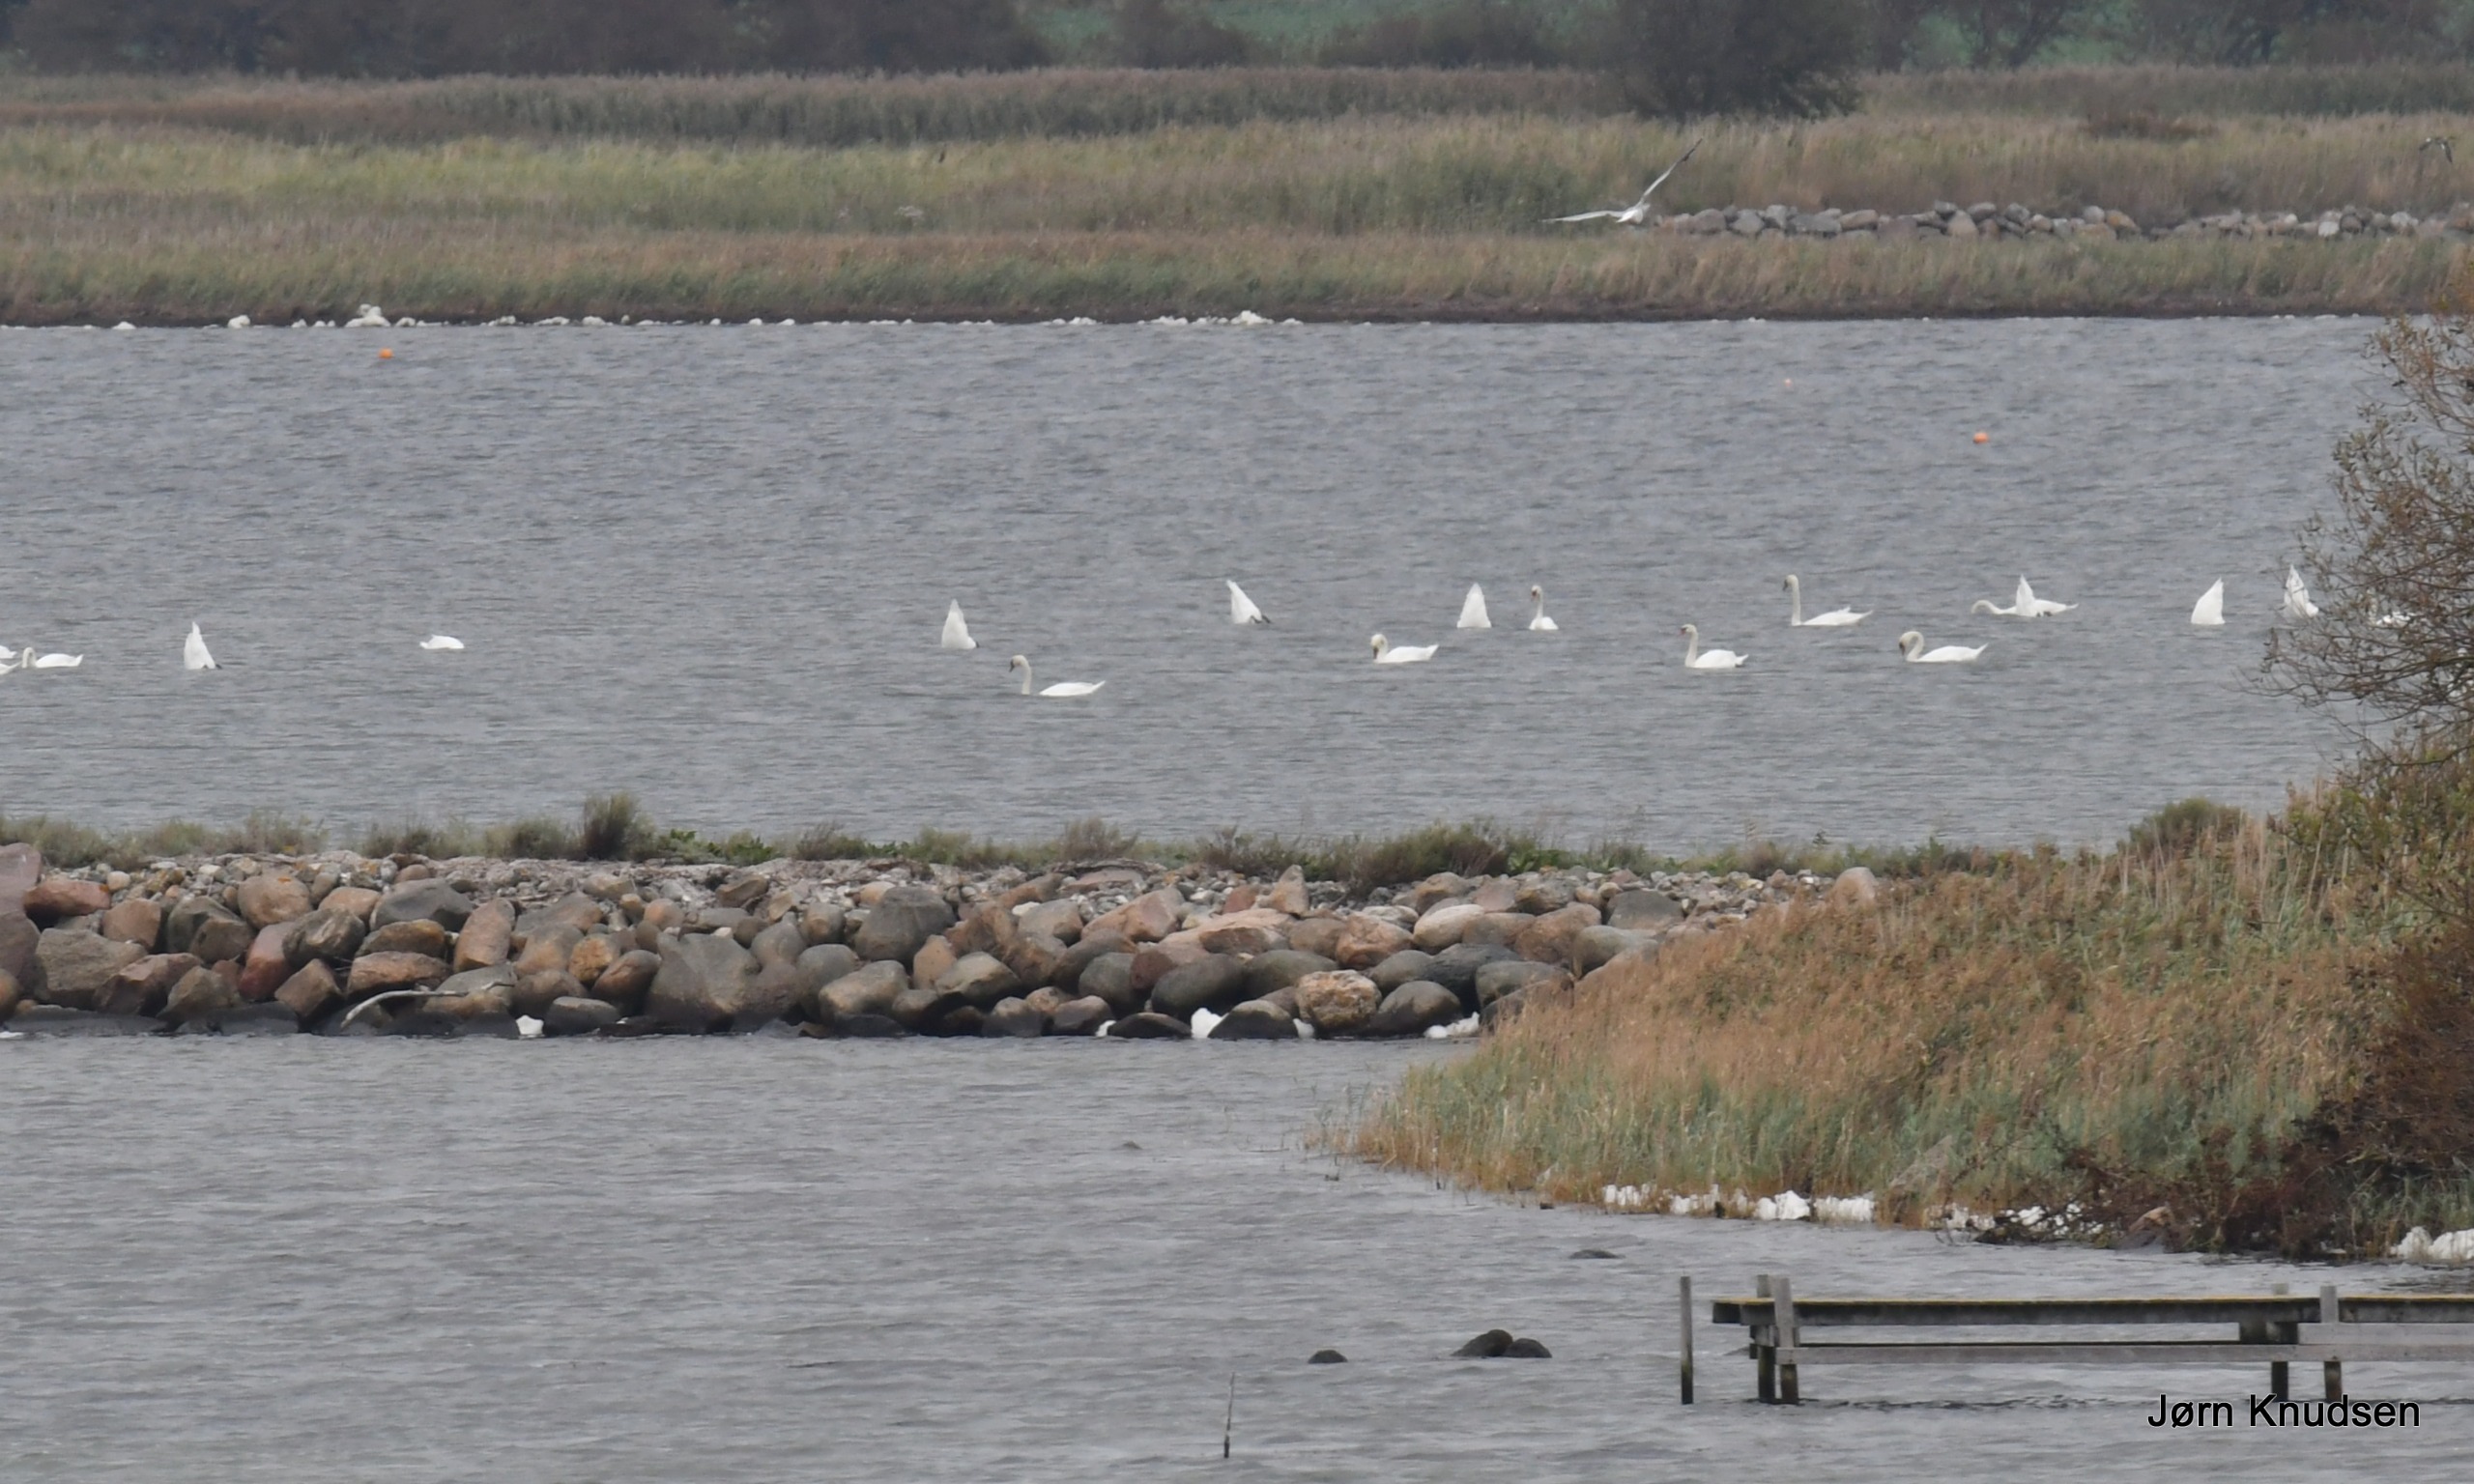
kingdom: Animalia
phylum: Chordata
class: Aves
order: Anseriformes
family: Anatidae
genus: Cygnus
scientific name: Cygnus olor
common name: Knopsvane
